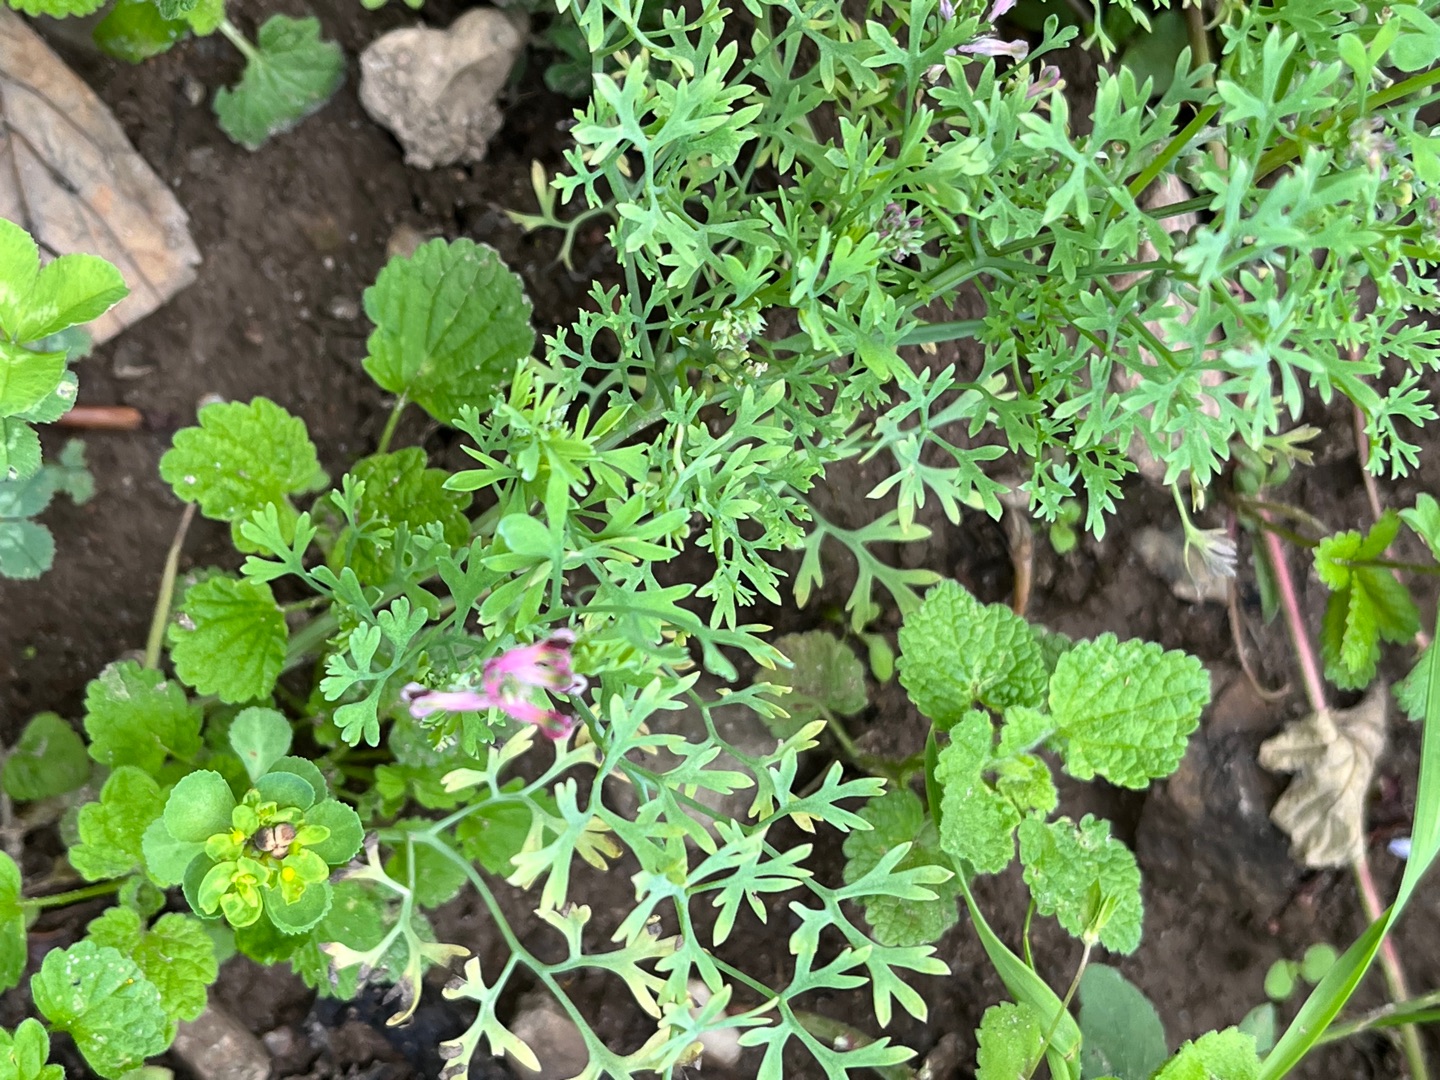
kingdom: Plantae
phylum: Tracheophyta
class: Magnoliopsida
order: Ranunculales
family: Papaveraceae
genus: Fumaria
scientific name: Fumaria officinalis
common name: Læge-jordrøg
